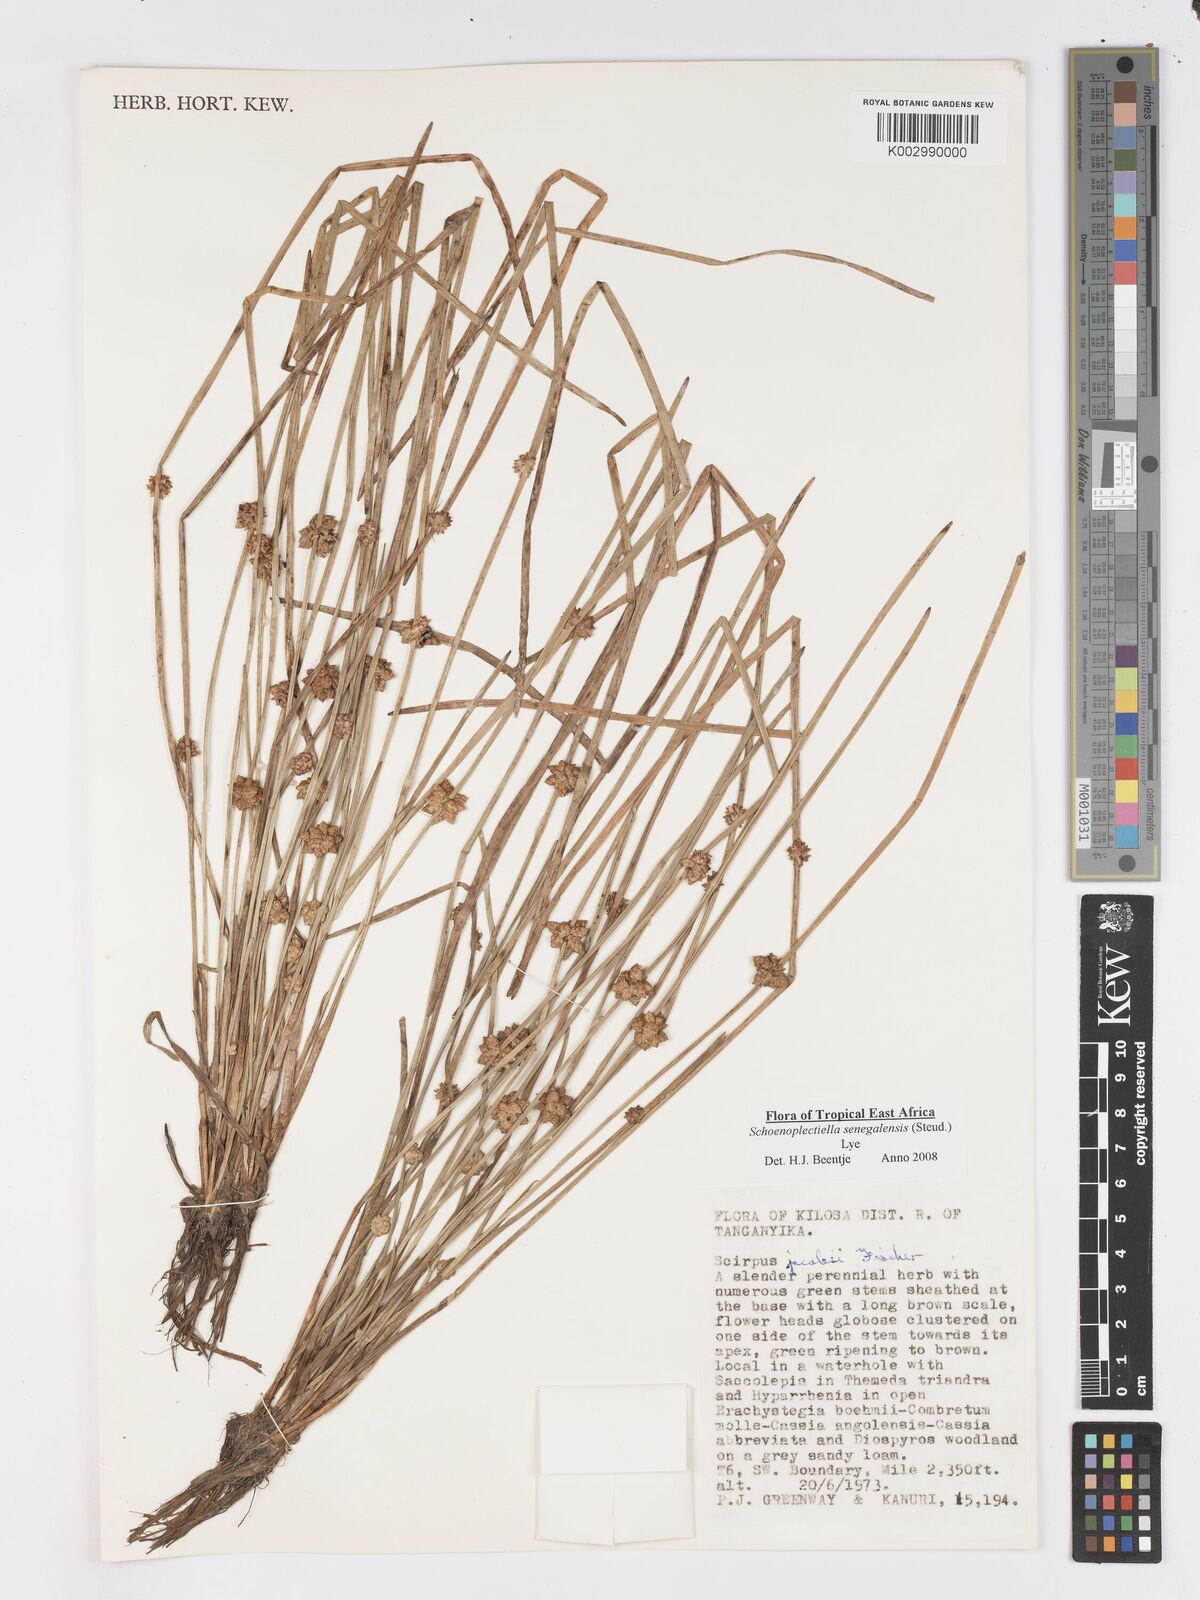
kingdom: Plantae
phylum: Tracheophyta
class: Liliopsida
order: Poales
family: Cyperaceae
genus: Schoenoplectiella
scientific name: Schoenoplectiella senegalensis
